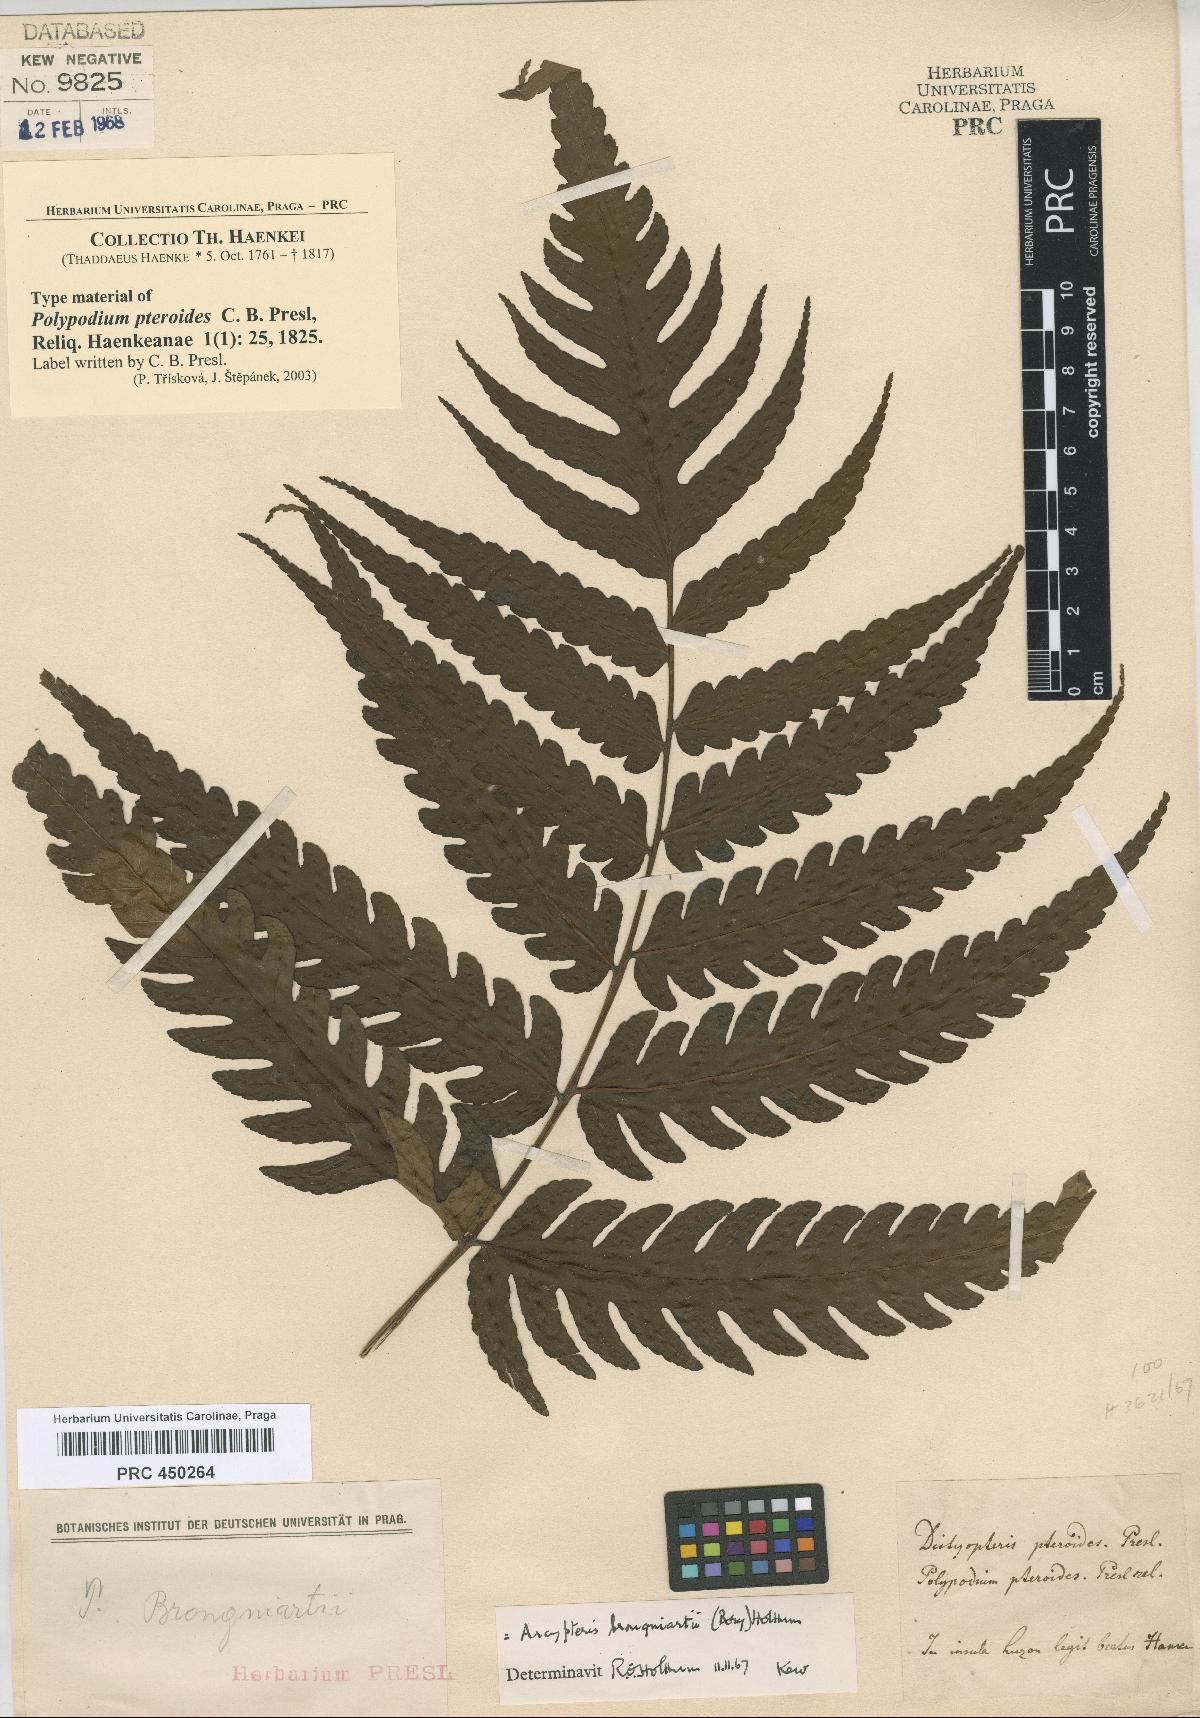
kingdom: Plantae
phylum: Tracheophyta
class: Polypodiopsida
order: Polypodiales
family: Dryopteridaceae
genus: Pleocnemia
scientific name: Pleocnemia brongniartii
